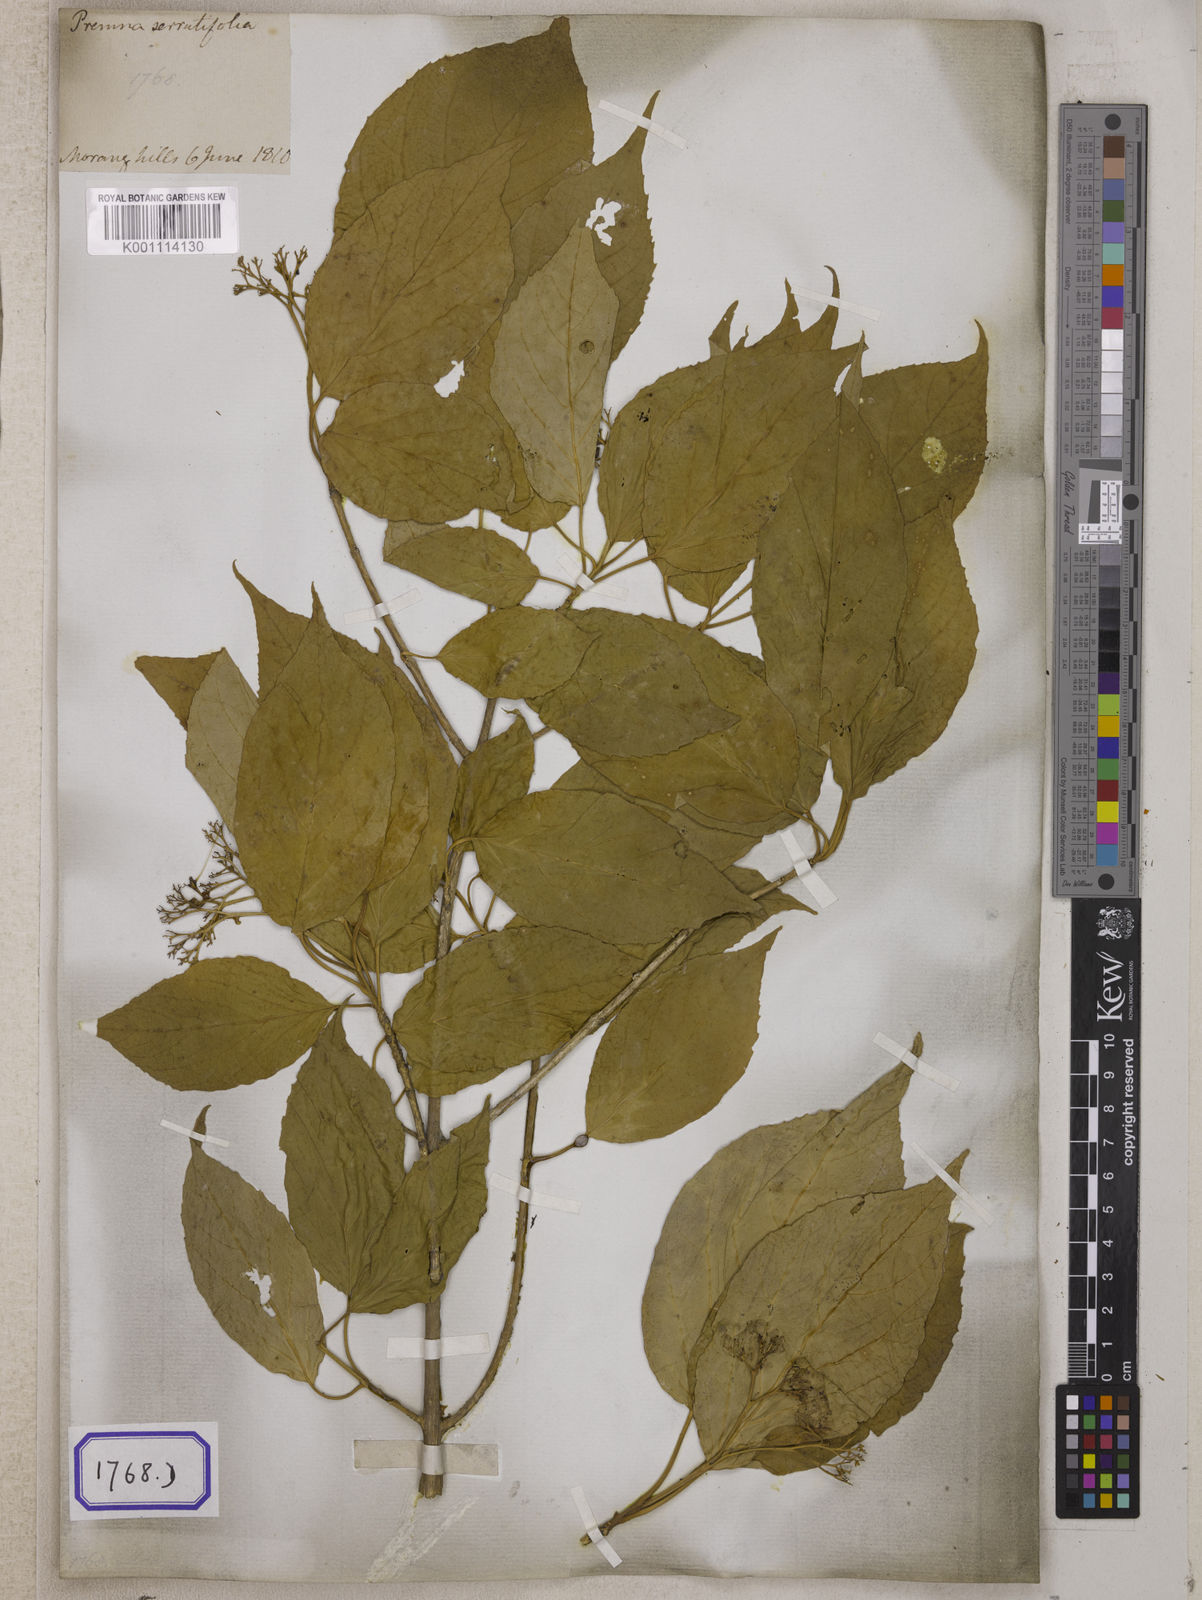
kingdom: Plantae
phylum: Tracheophyta
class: Magnoliopsida
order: Lamiales
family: Lamiaceae
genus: Premna
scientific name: Premna
